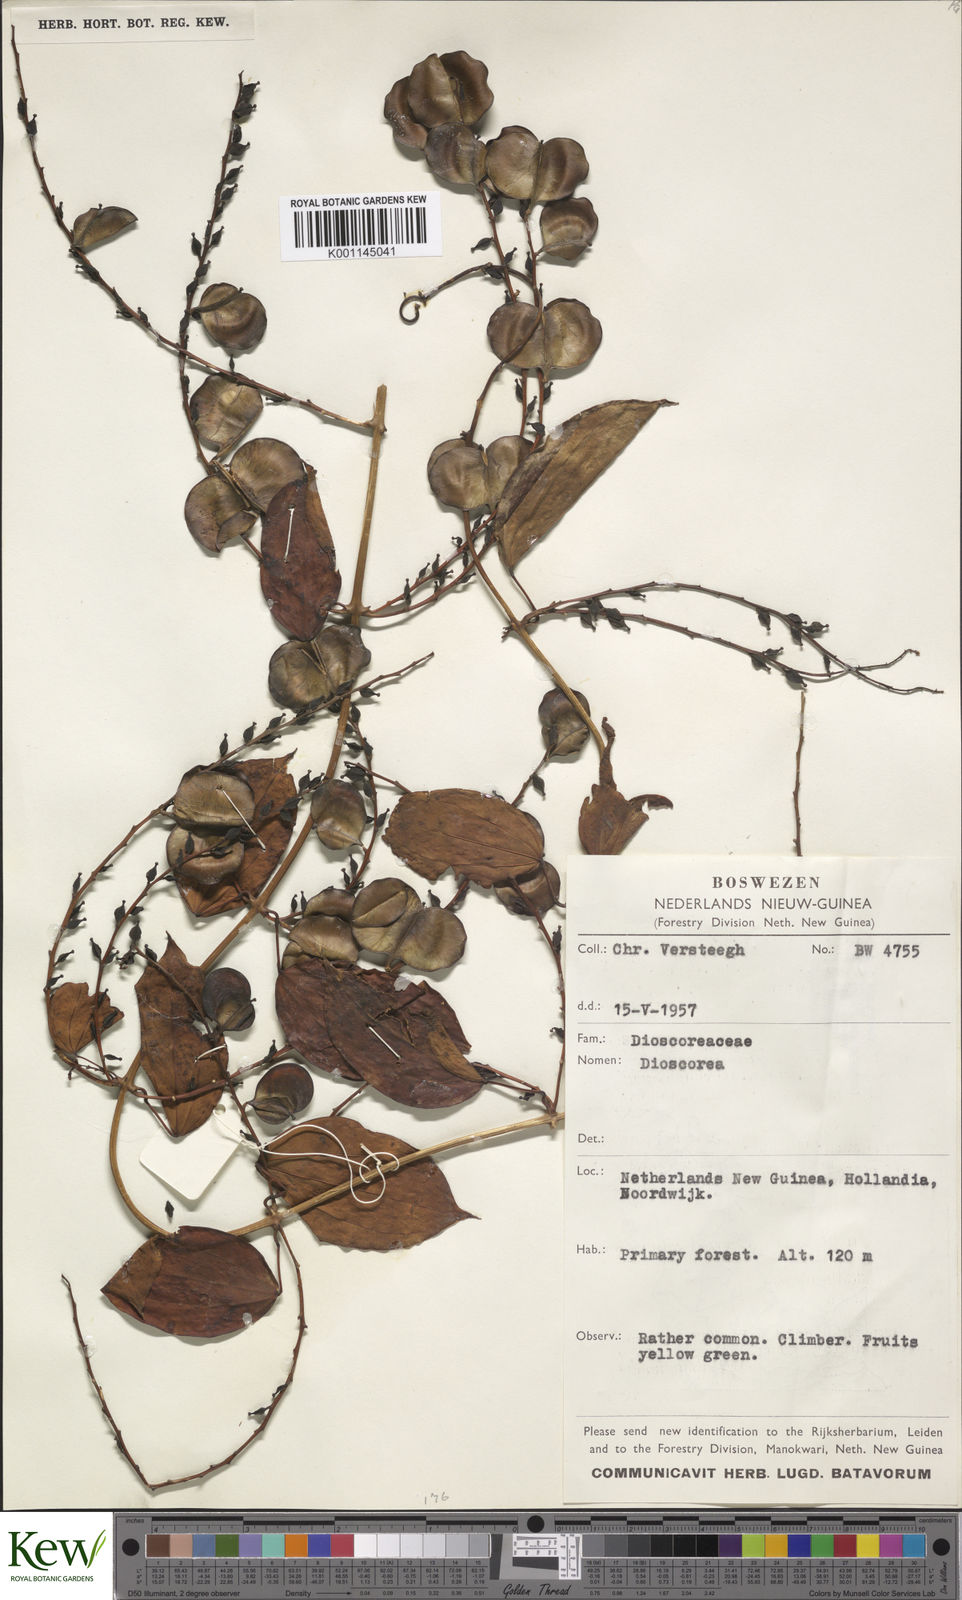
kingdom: Plantae
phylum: Tracheophyta
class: Liliopsida
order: Dioscoreales
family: Dioscoreaceae
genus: Dioscorea
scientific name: Dioscorea
